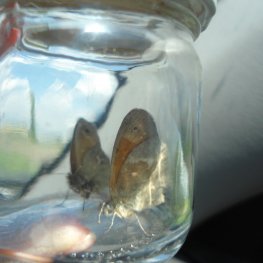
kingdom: Animalia
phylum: Arthropoda
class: Insecta
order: Lepidoptera
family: Nymphalidae
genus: Coenonympha
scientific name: Coenonympha tullia
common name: Large Heath
